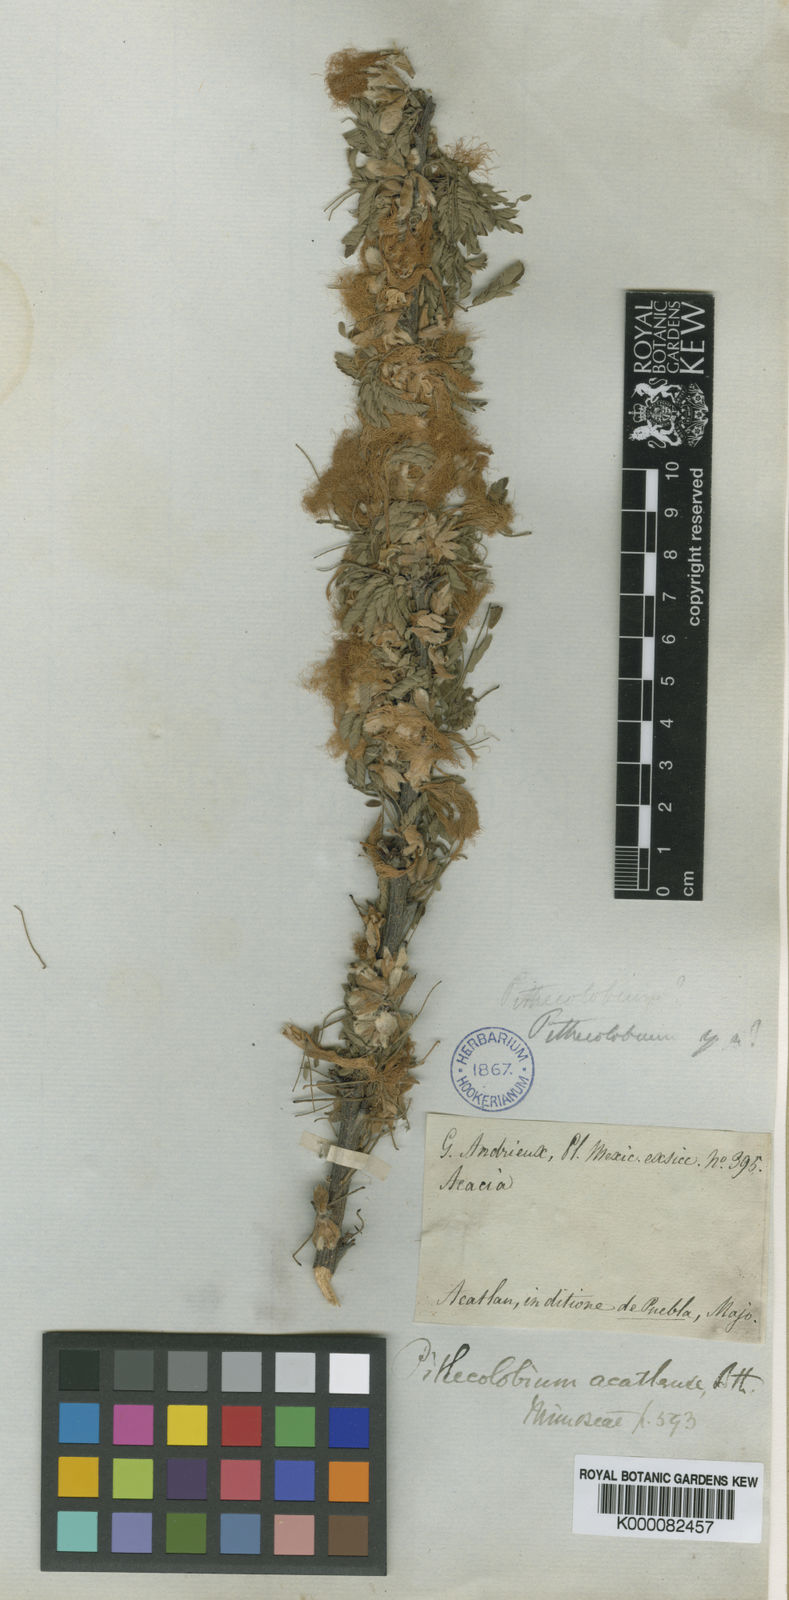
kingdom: Plantae
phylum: Tracheophyta
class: Magnoliopsida
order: Fabales
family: Fabaceae
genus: Havardia
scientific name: Havardia acatlensis
